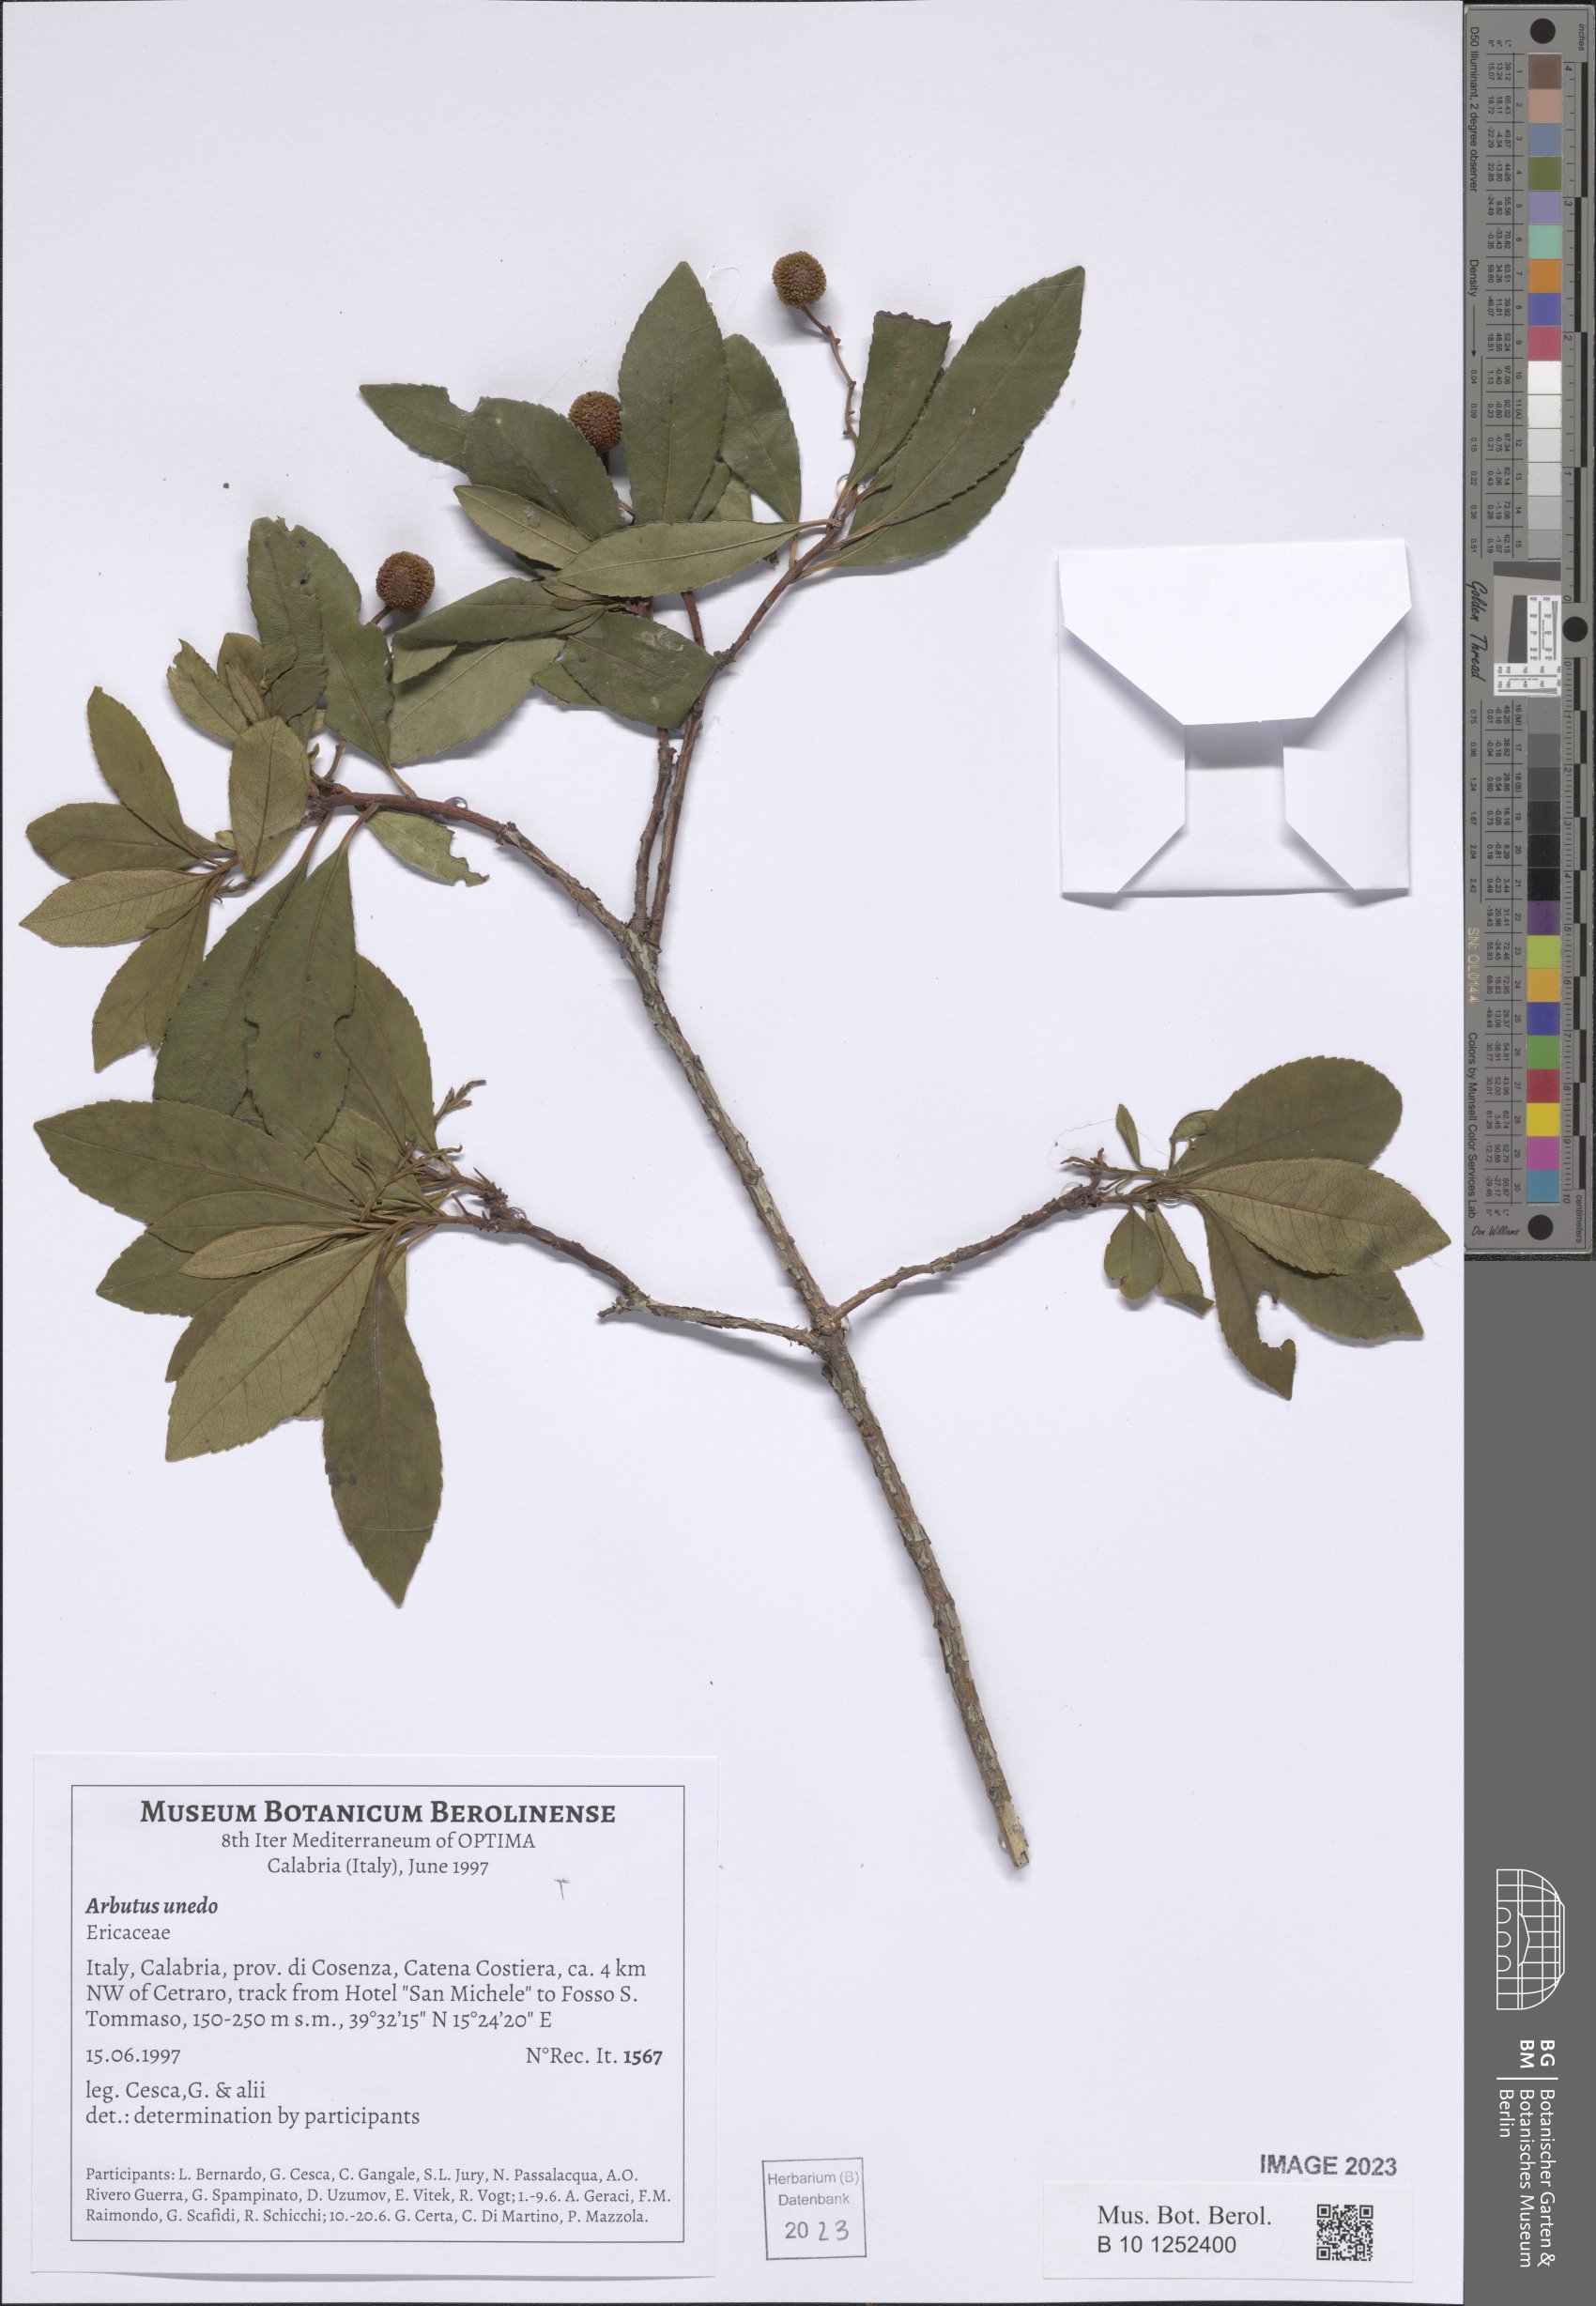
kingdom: Plantae
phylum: Tracheophyta
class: Magnoliopsida
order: Ericales
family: Ericaceae
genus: Arbutus
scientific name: Arbutus unedo
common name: Strawberry-tree
